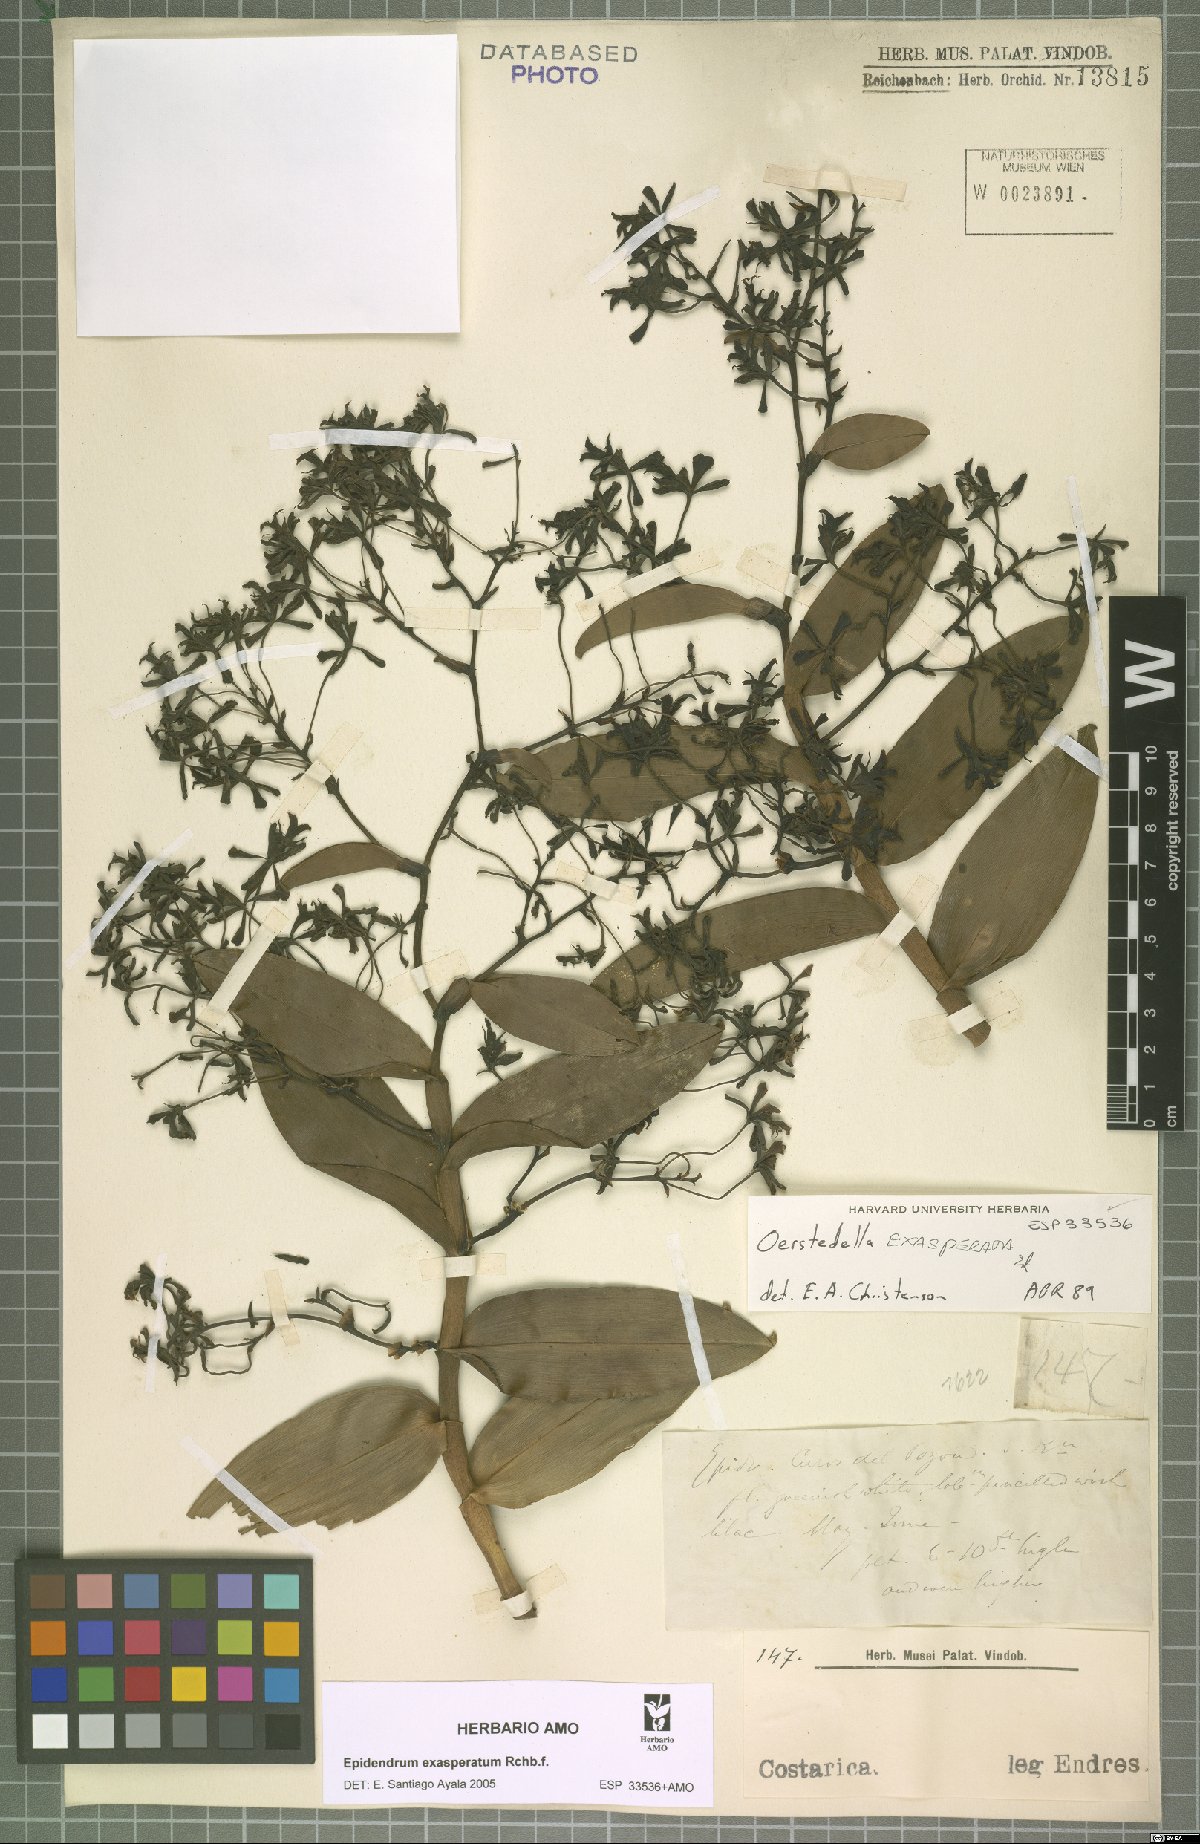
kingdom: Plantae
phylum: Tracheophyta
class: Liliopsida
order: Asparagales
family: Orchidaceae
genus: Epidendrum
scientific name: Epidendrum exasperatum
